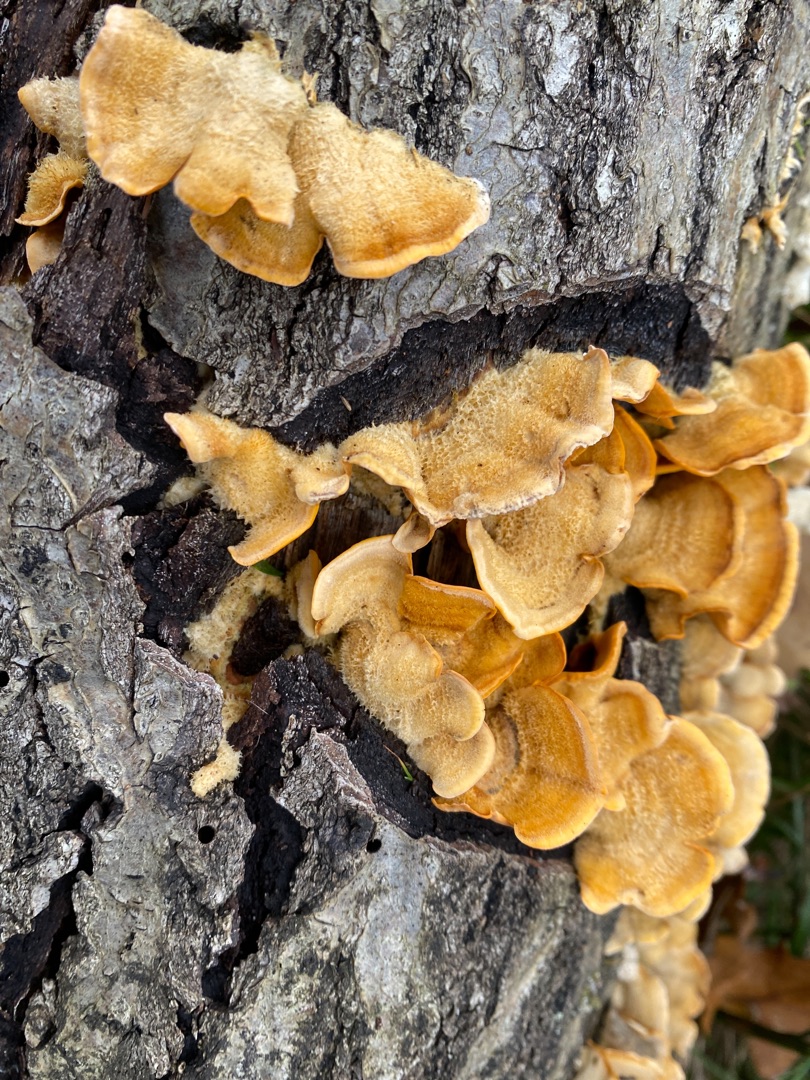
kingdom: Fungi
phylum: Basidiomycota
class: Agaricomycetes
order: Russulales
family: Stereaceae
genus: Stereum
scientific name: Stereum hirsutum
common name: Håret lædersvamp
